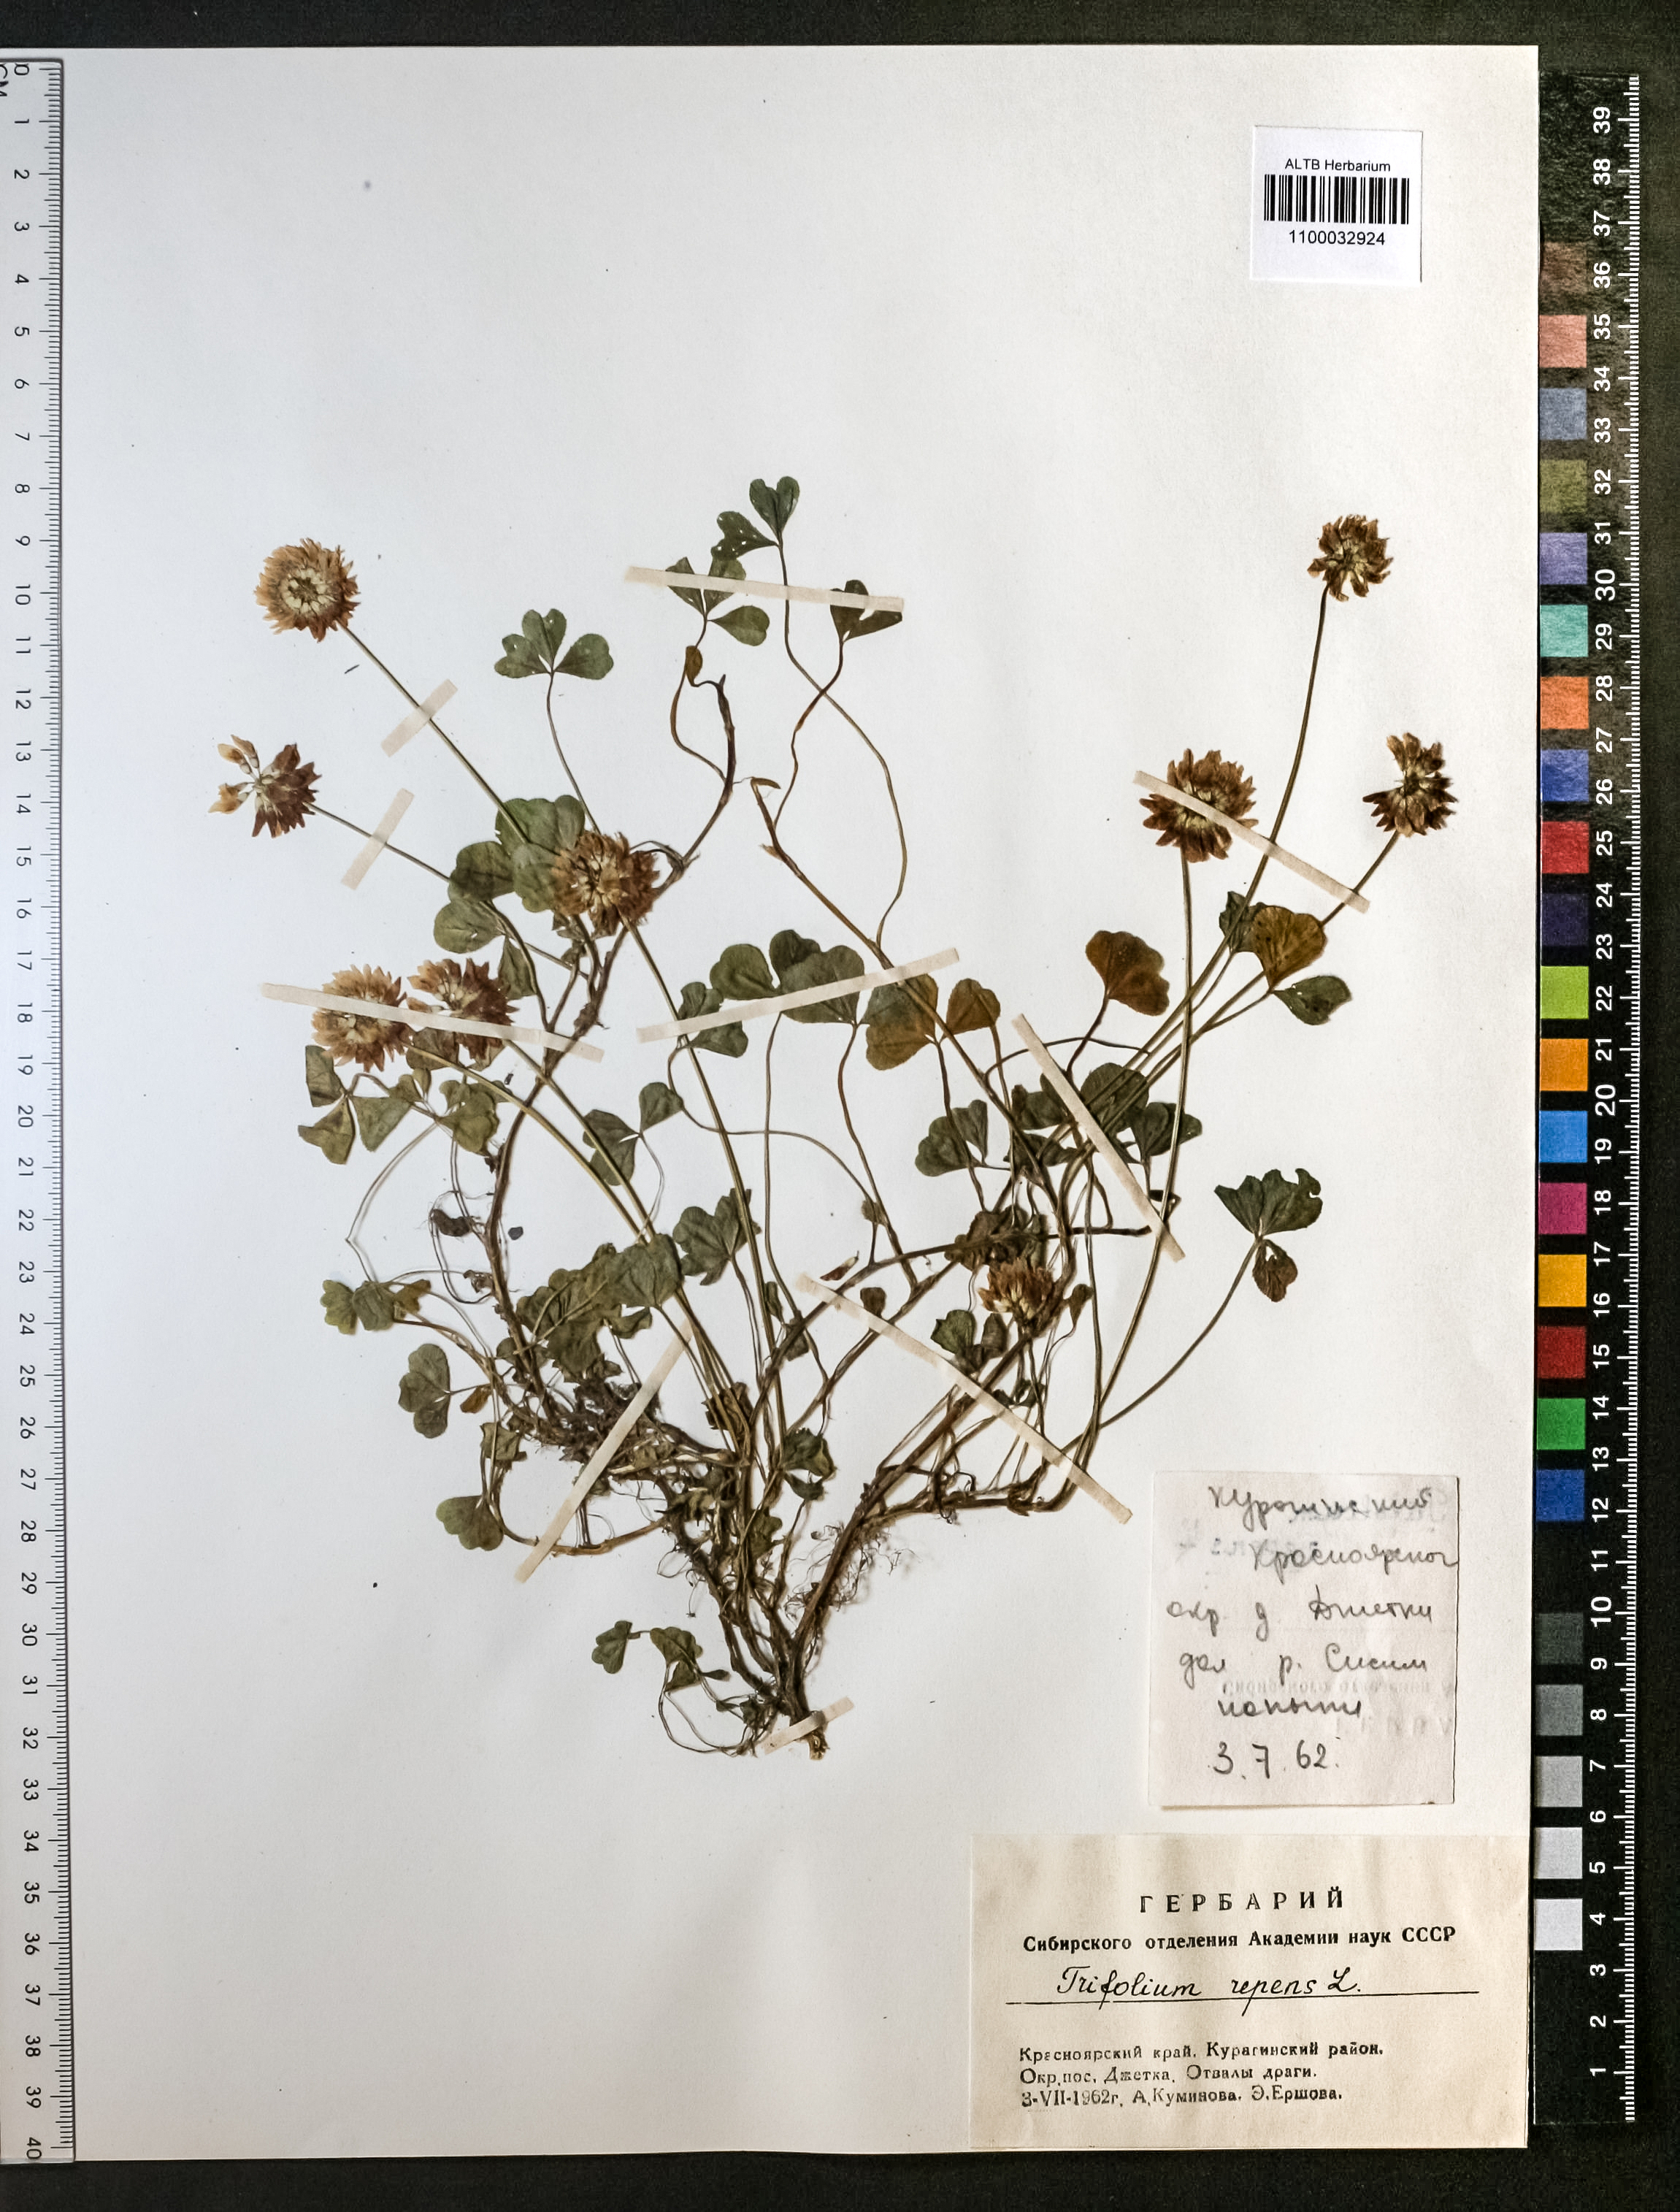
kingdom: Plantae
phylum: Tracheophyta
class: Magnoliopsida
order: Fabales
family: Fabaceae
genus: Trifolium
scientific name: Trifolium repens
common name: White clover
